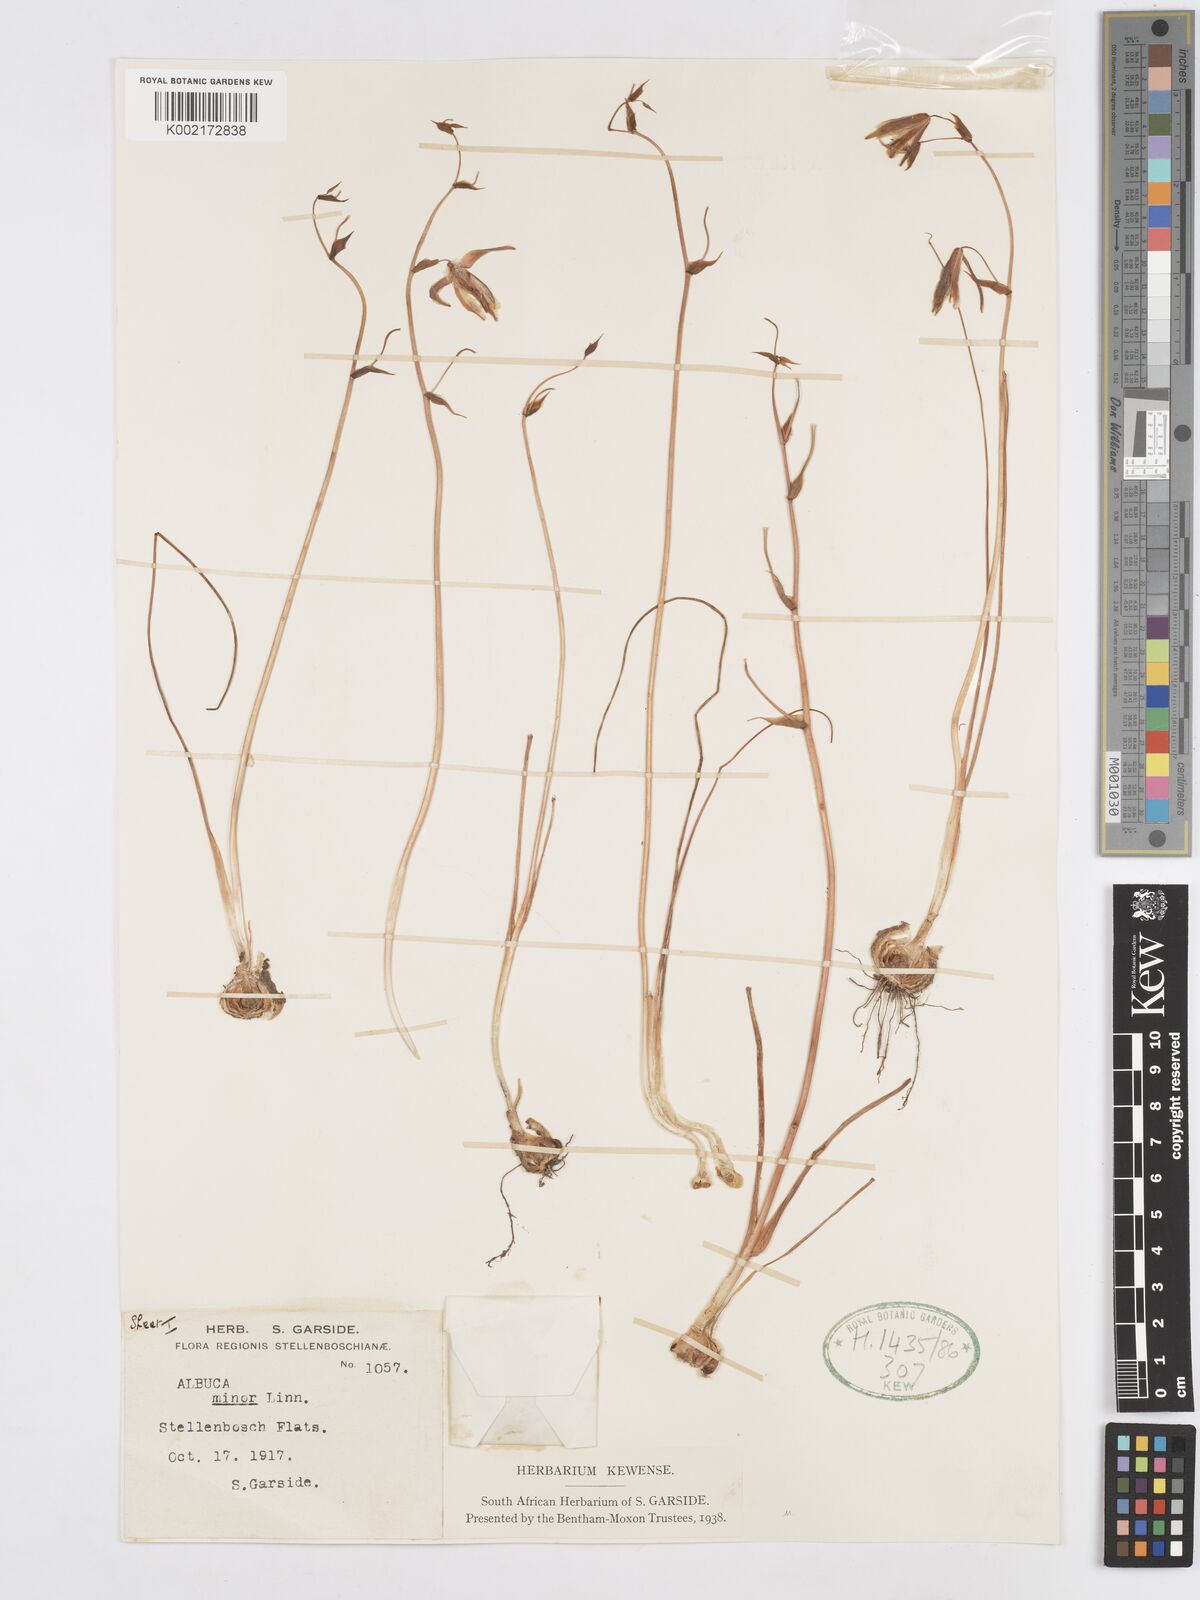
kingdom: Plantae
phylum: Tracheophyta
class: Liliopsida
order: Asparagales
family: Asparagaceae
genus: Albuca
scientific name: Albuca canadensis
